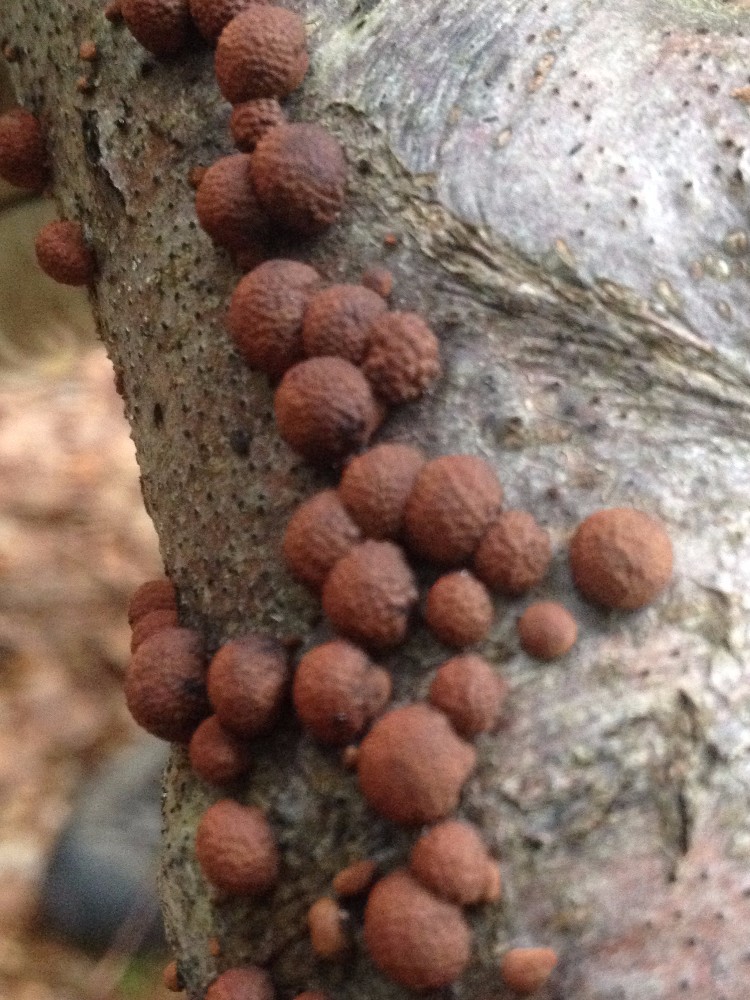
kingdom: Fungi
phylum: Ascomycota
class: Sordariomycetes
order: Xylariales
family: Hypoxylaceae
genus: Hypoxylon
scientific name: Hypoxylon fragiforme
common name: kuljordbær
